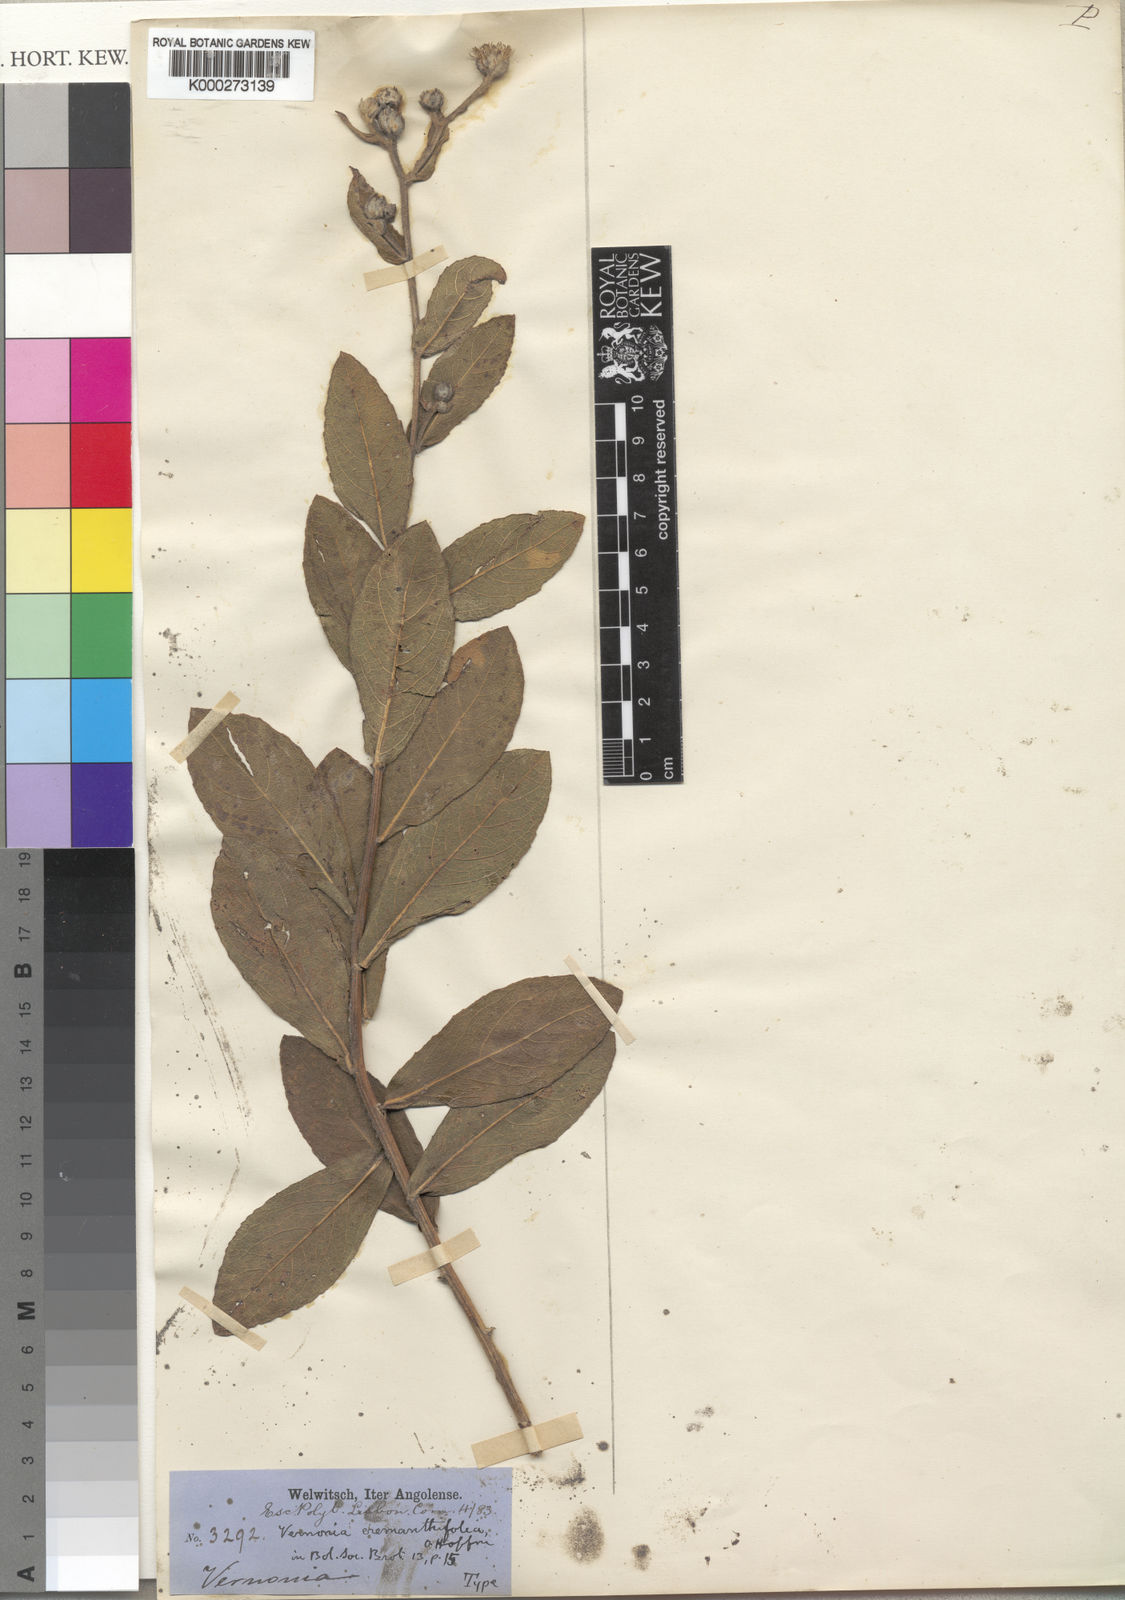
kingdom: Plantae
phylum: Tracheophyta
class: Magnoliopsida
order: Asterales
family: Asteraceae
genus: Lampropappus
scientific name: Lampropappus eremanthifolia
